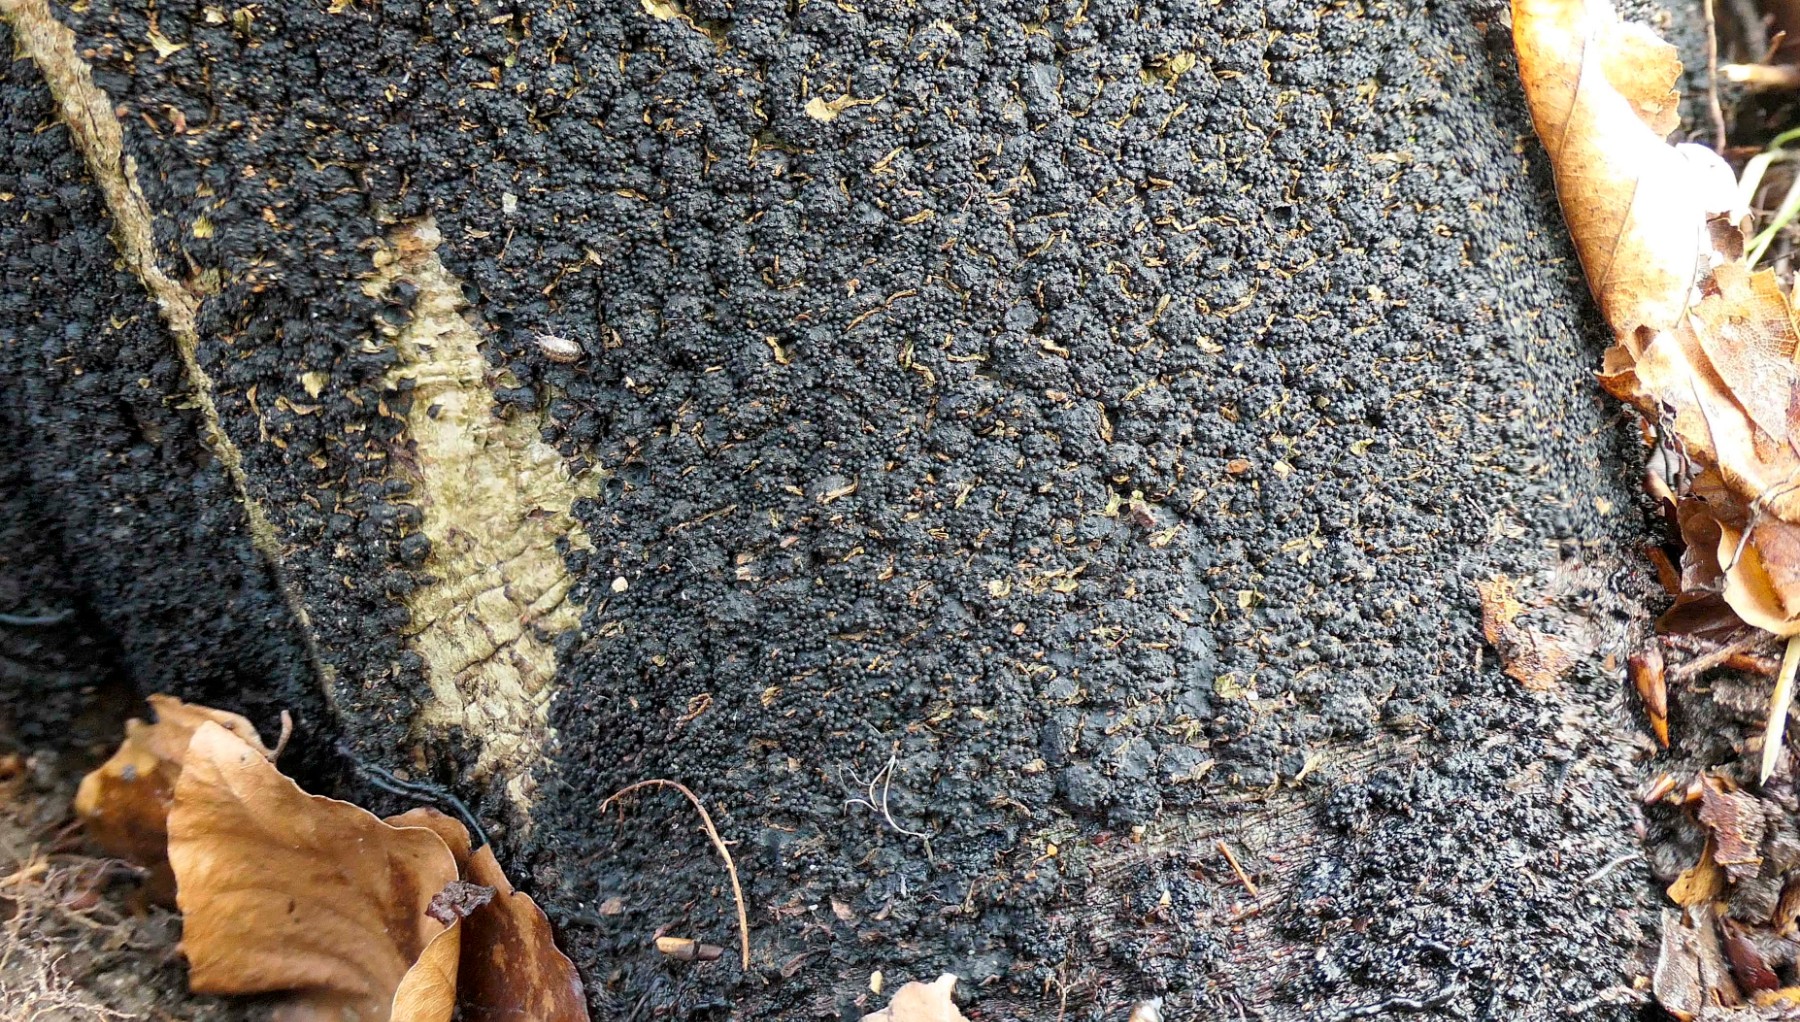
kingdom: Fungi
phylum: Ascomycota
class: Sordariomycetes
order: Xylariales
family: Melogrammataceae
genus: Melogramma
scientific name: Melogramma spiniferum
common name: bøgefod-kulhals
